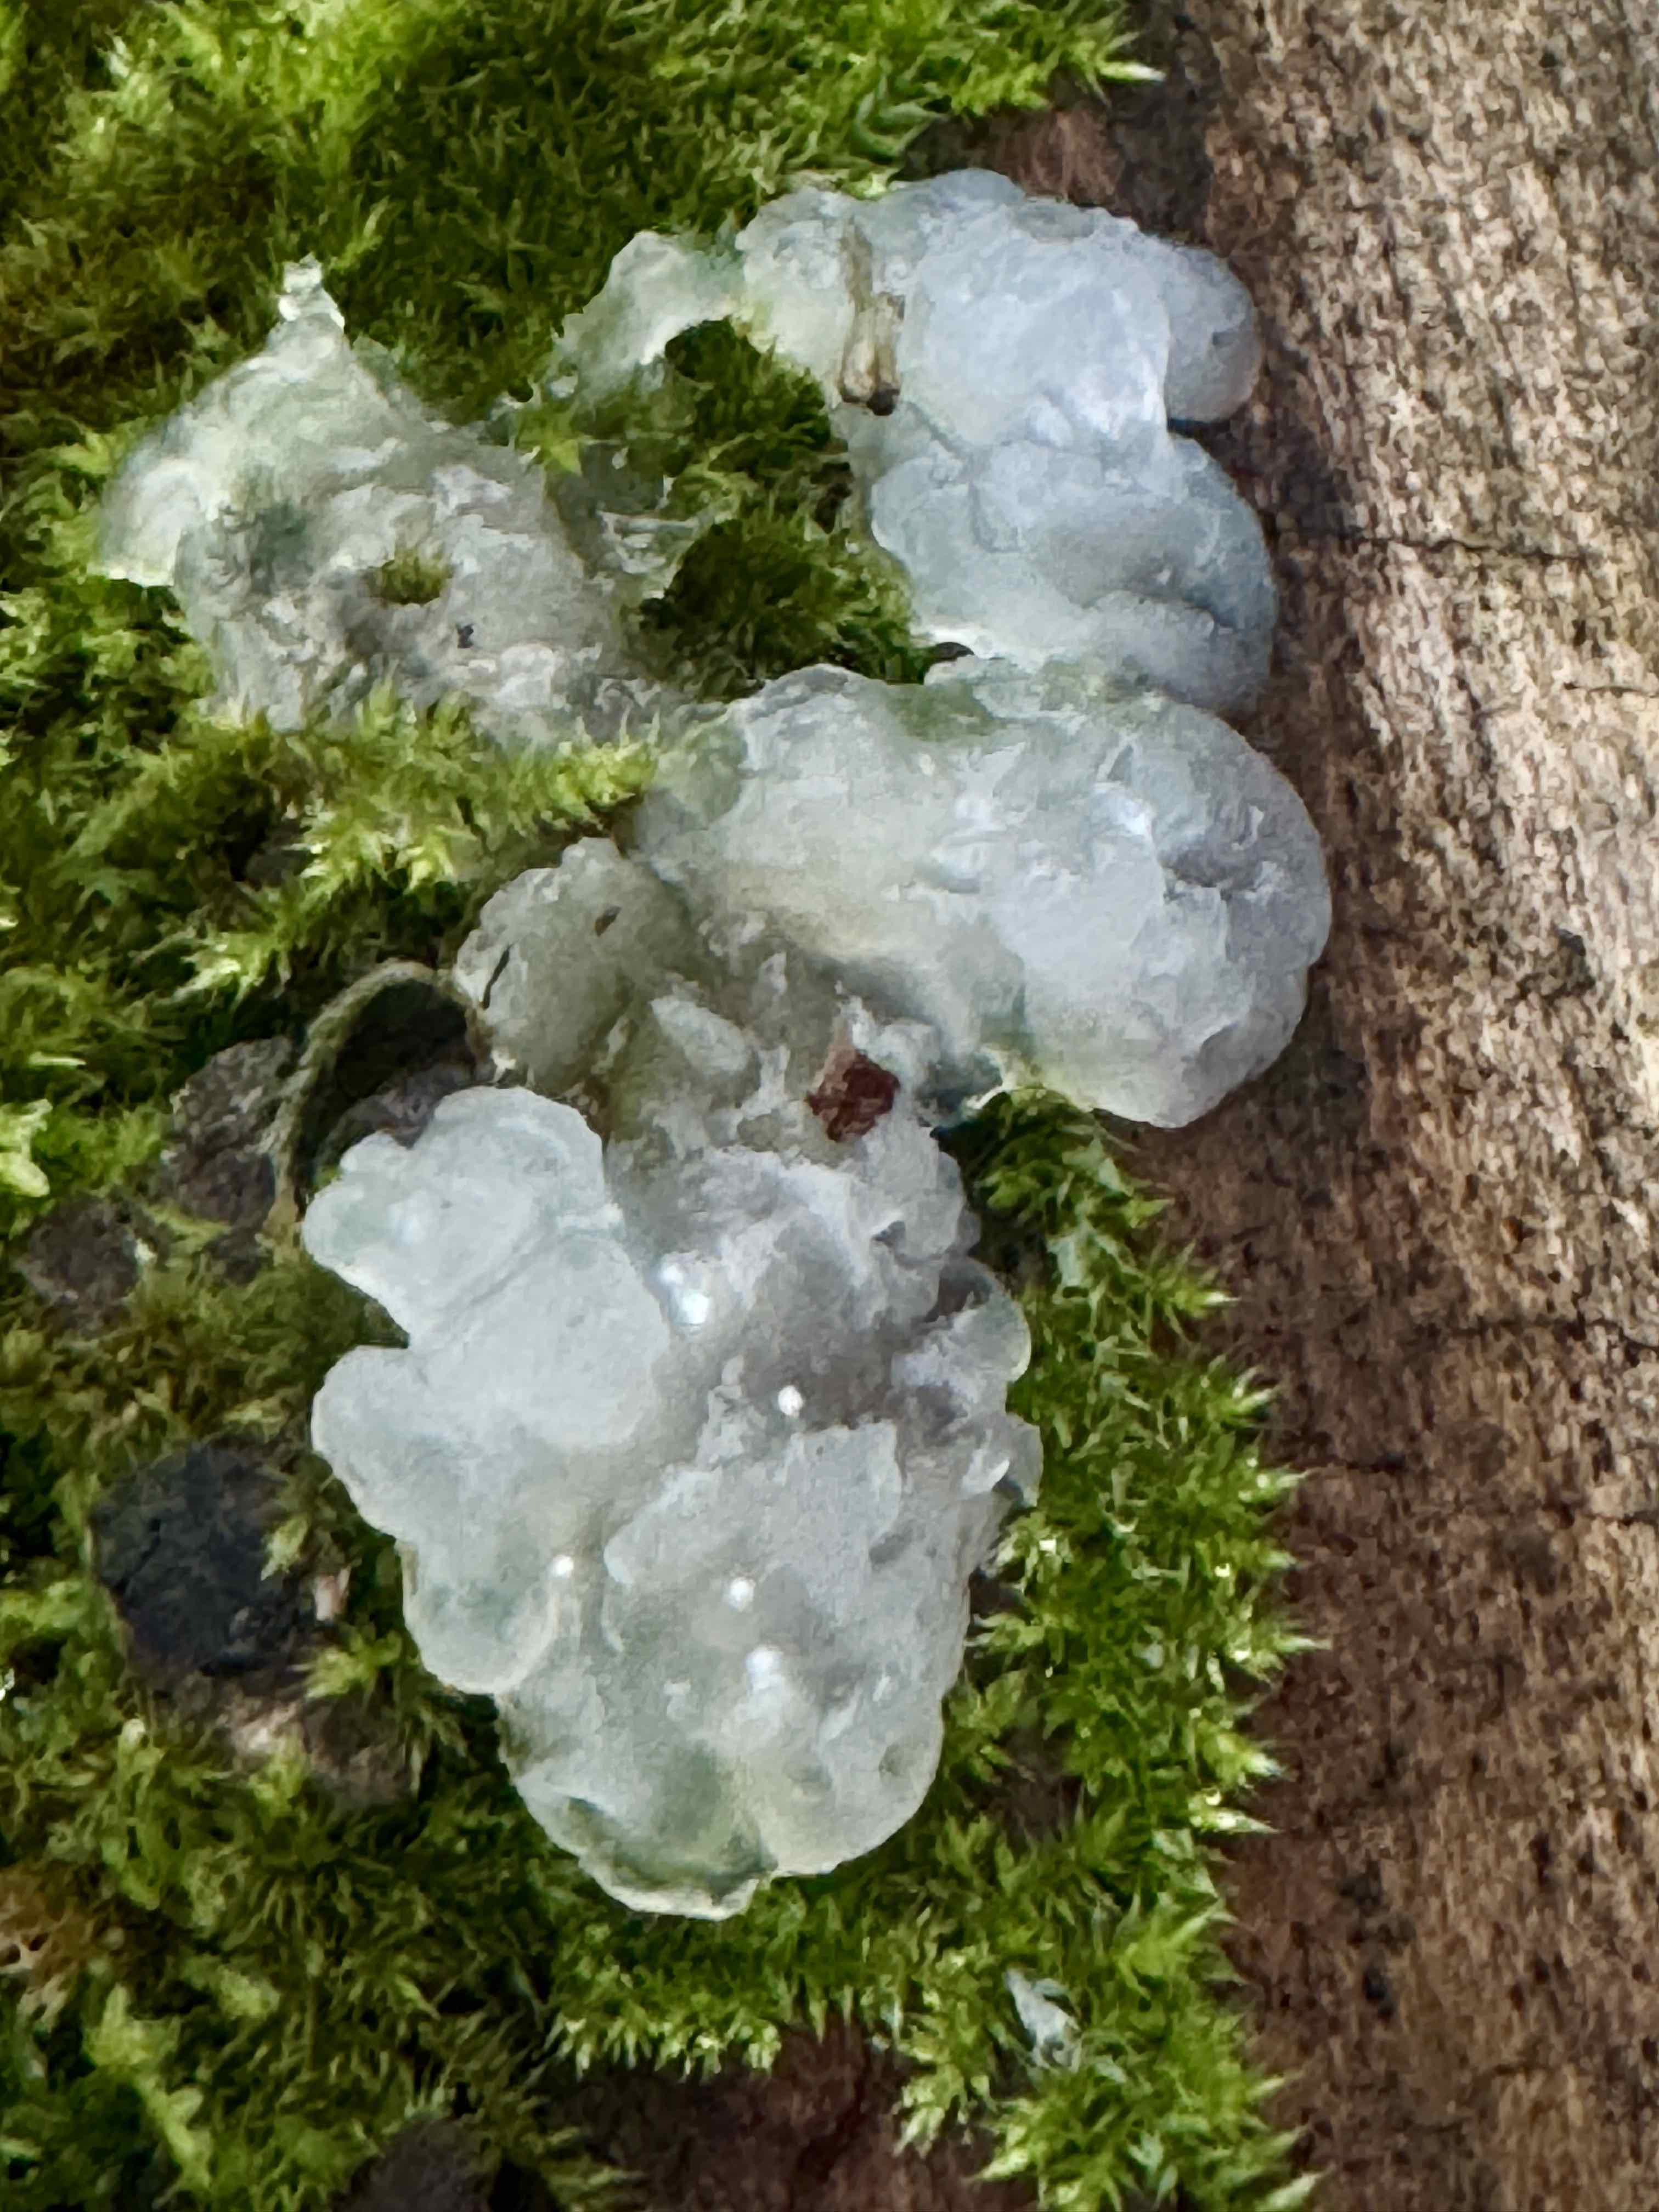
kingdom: Fungi
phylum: Basidiomycota
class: Agaricomycetes
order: Auriculariales
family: Hyaloriaceae
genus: Myxarium
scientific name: Myxarium nucleatum
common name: klar bævretop
